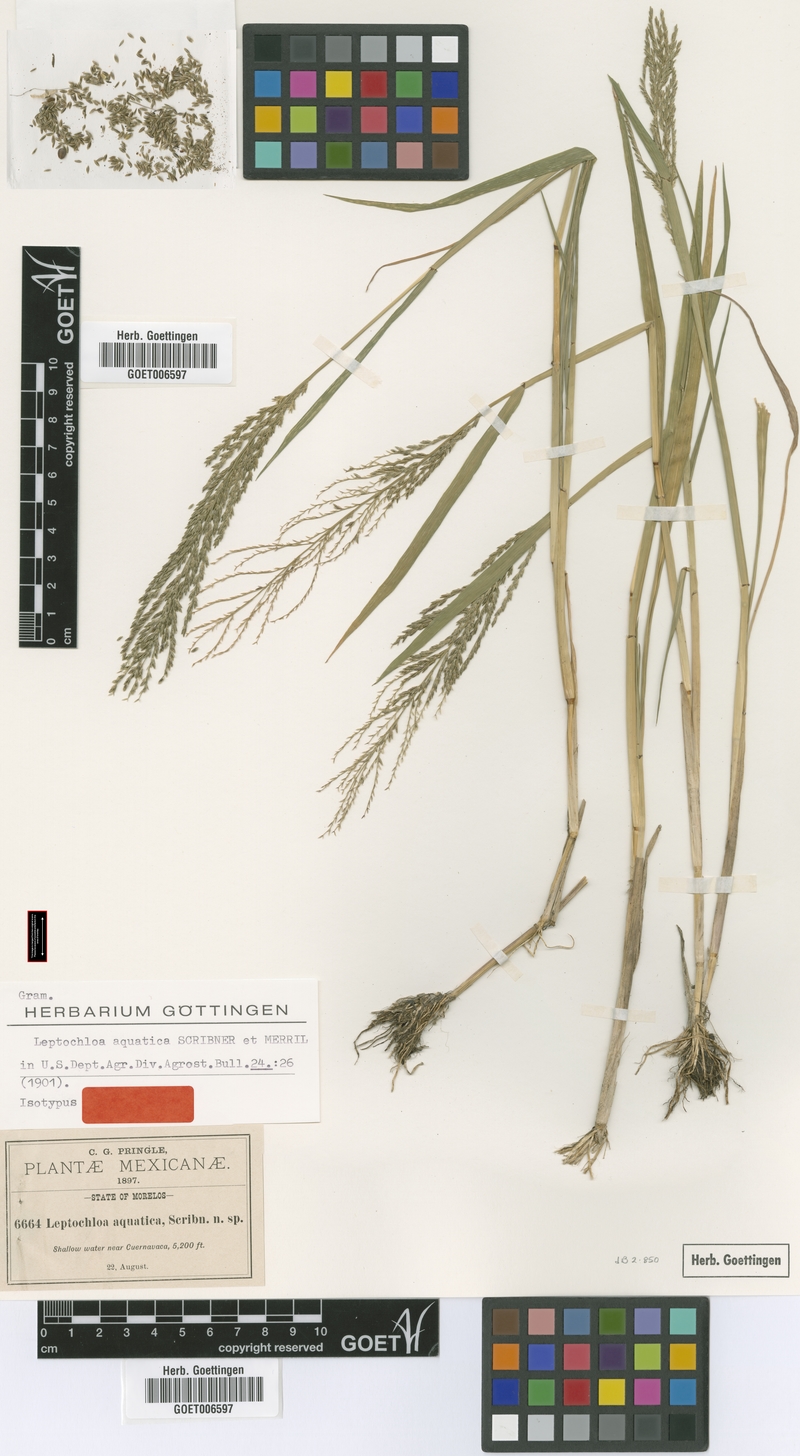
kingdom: Plantae
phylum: Tracheophyta
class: Liliopsida
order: Poales
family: Poaceae
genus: Leptochloa
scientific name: Leptochloa aquatica
